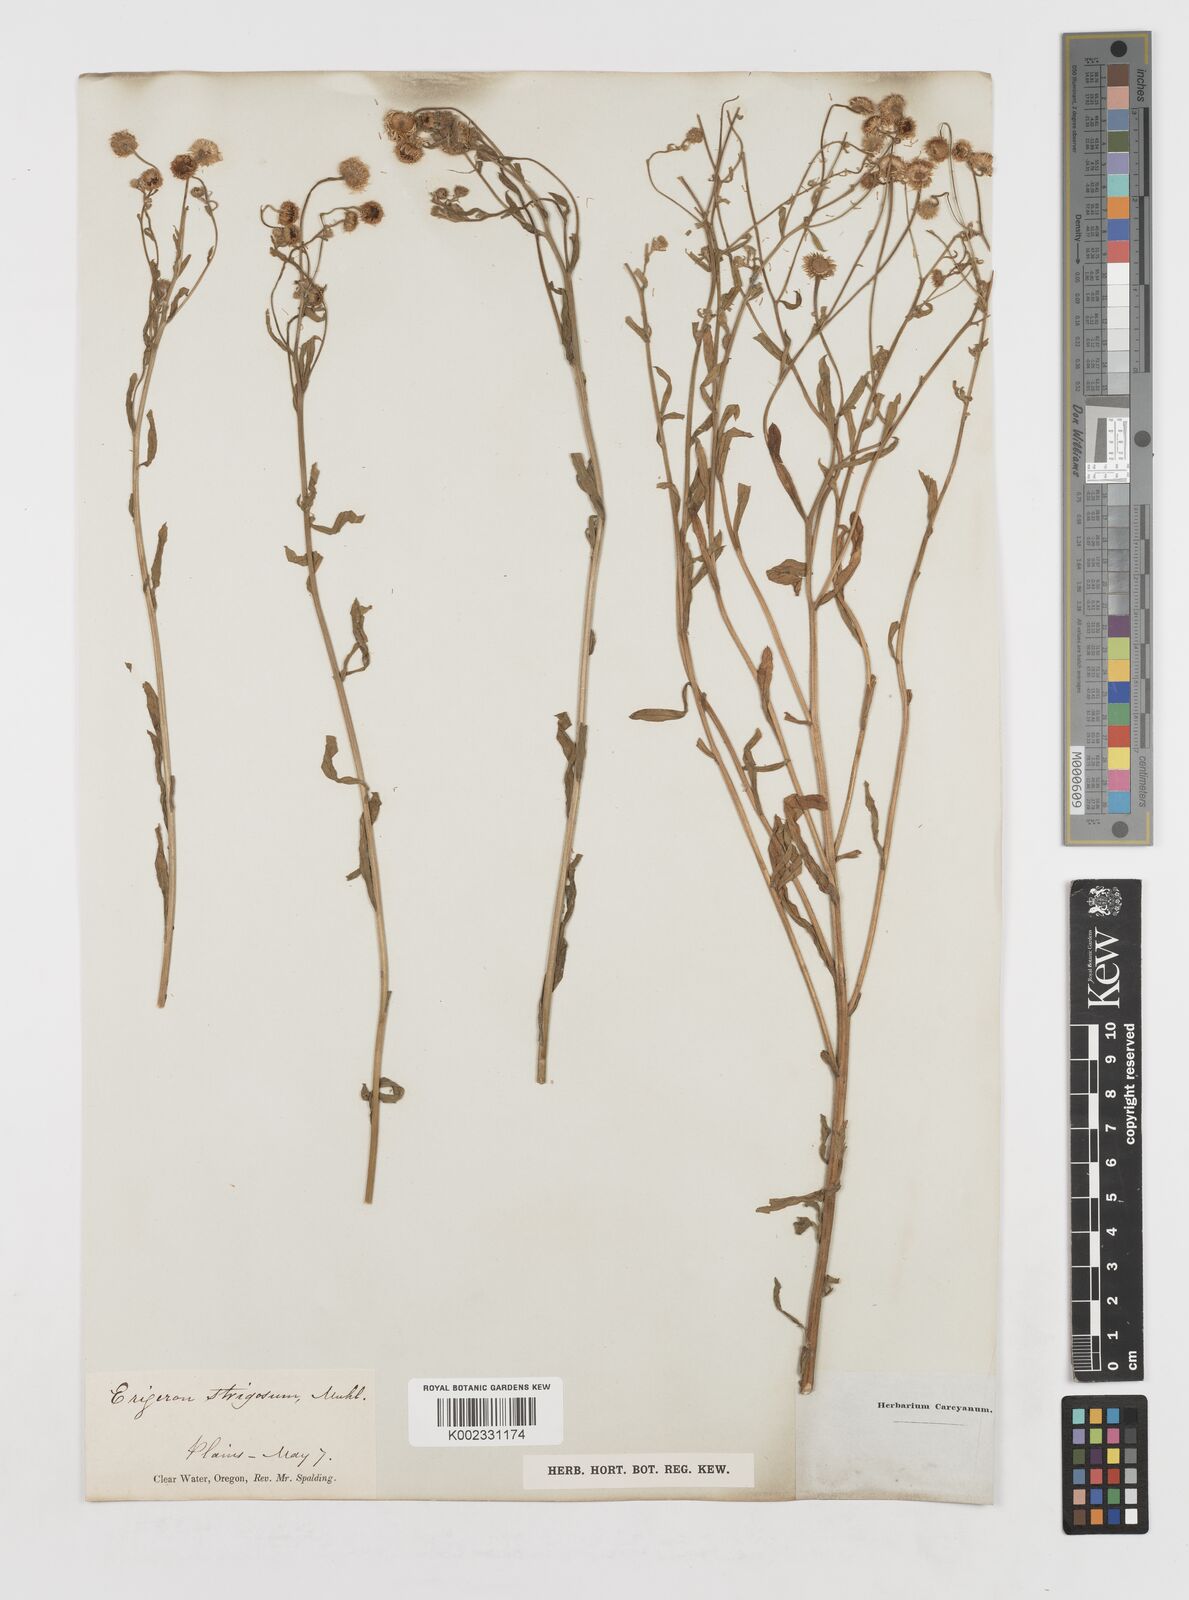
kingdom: Plantae
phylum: Tracheophyta
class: Magnoliopsida
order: Asterales
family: Asteraceae
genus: Erigeron
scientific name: Erigeron strigosus
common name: Common eastern fleabane
